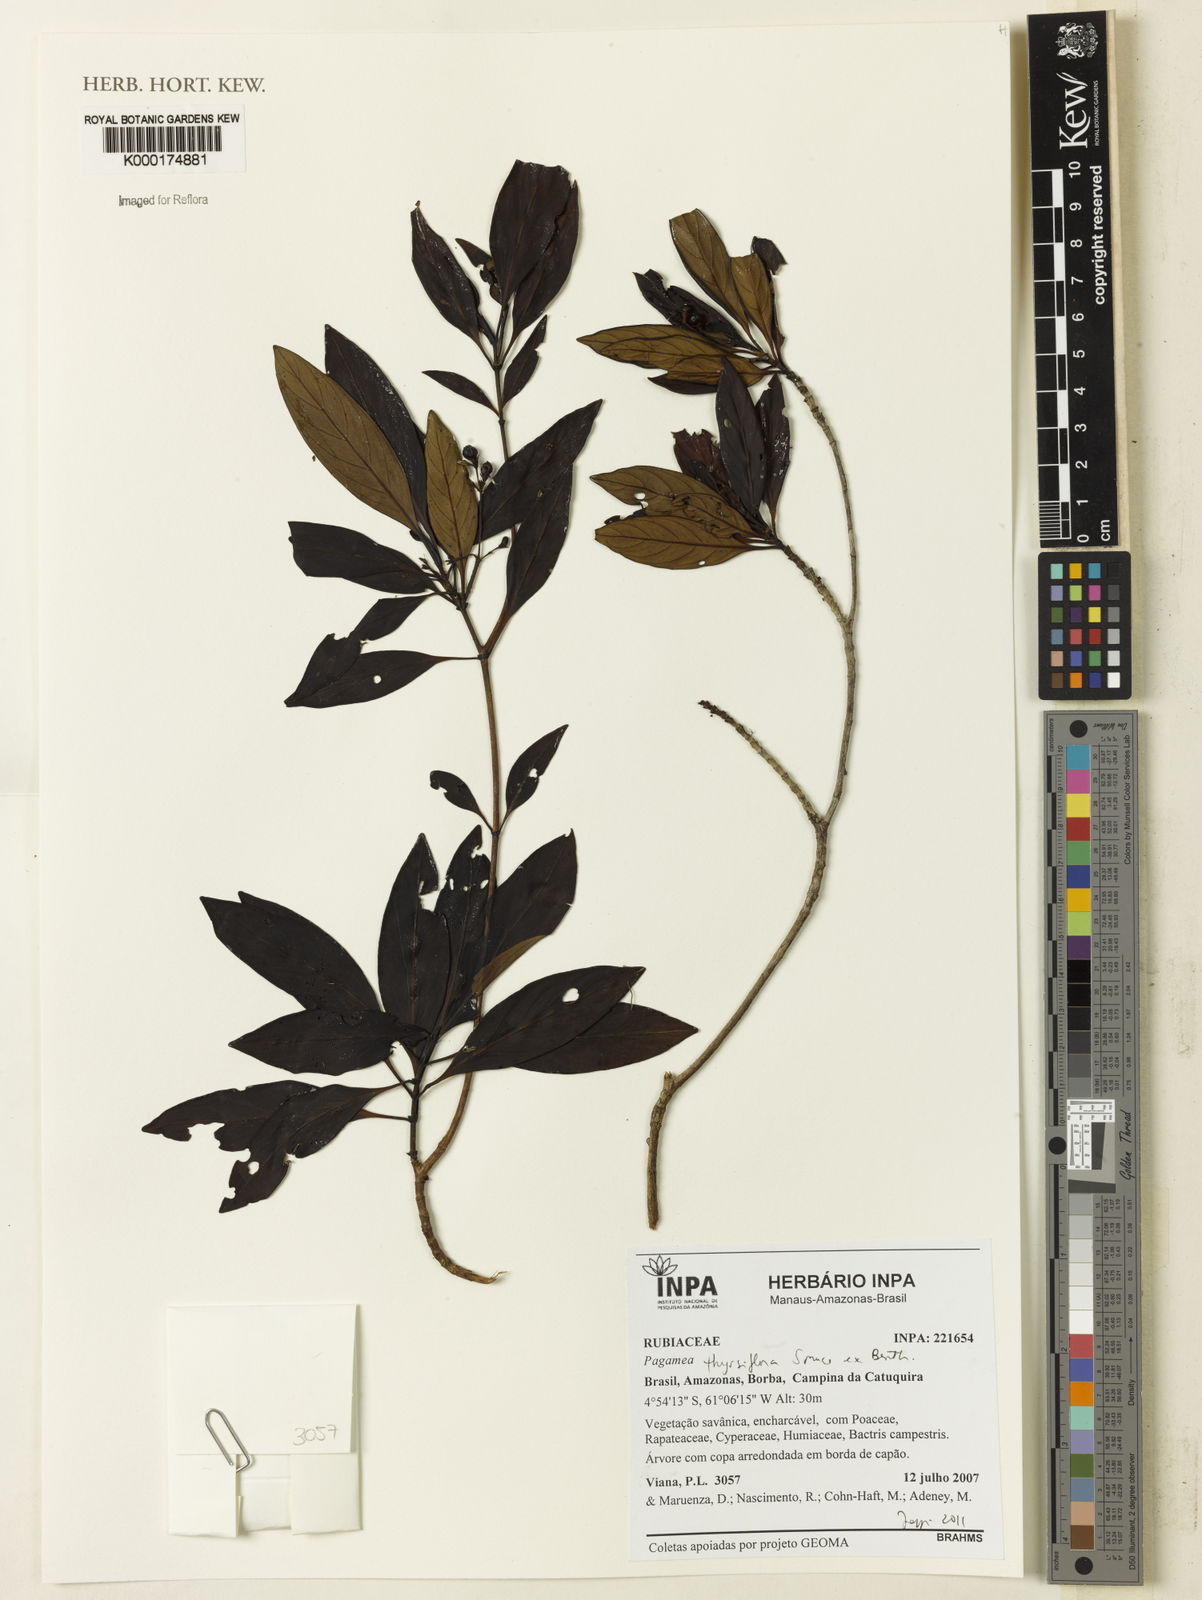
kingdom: Plantae
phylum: Tracheophyta
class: Magnoliopsida
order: Gentianales
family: Rubiaceae
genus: Pagamea
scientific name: Pagamea thyrsiflora
